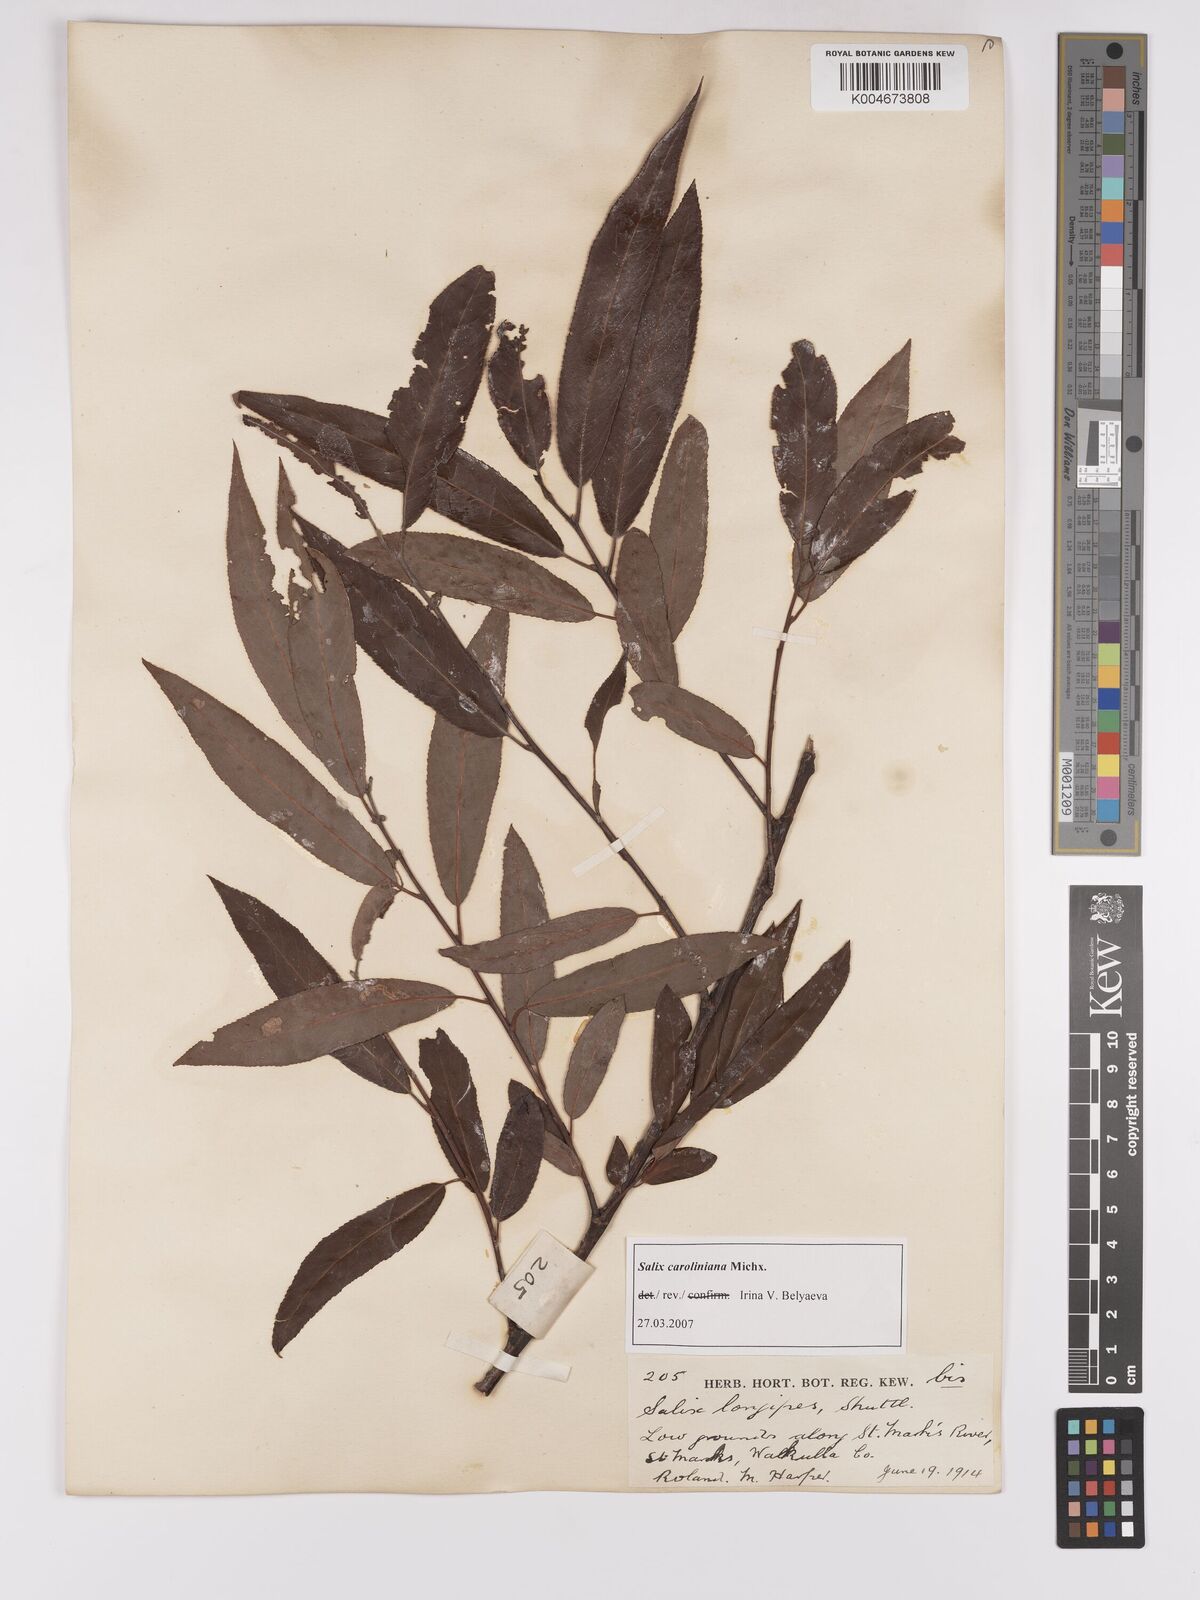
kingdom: Plantae
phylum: Tracheophyta
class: Magnoliopsida
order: Malpighiales
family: Salicaceae
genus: Salix
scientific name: Salix caroliniana
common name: Carolina willow
